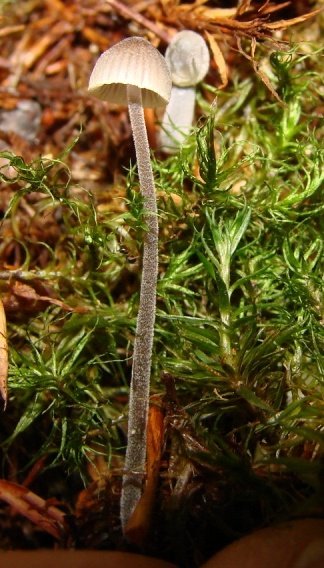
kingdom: Fungi
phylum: Basidiomycota
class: Agaricomycetes
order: Agaricales
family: Mycenaceae
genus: Mycena
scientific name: Mycena amicta
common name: iris-huesvamp
